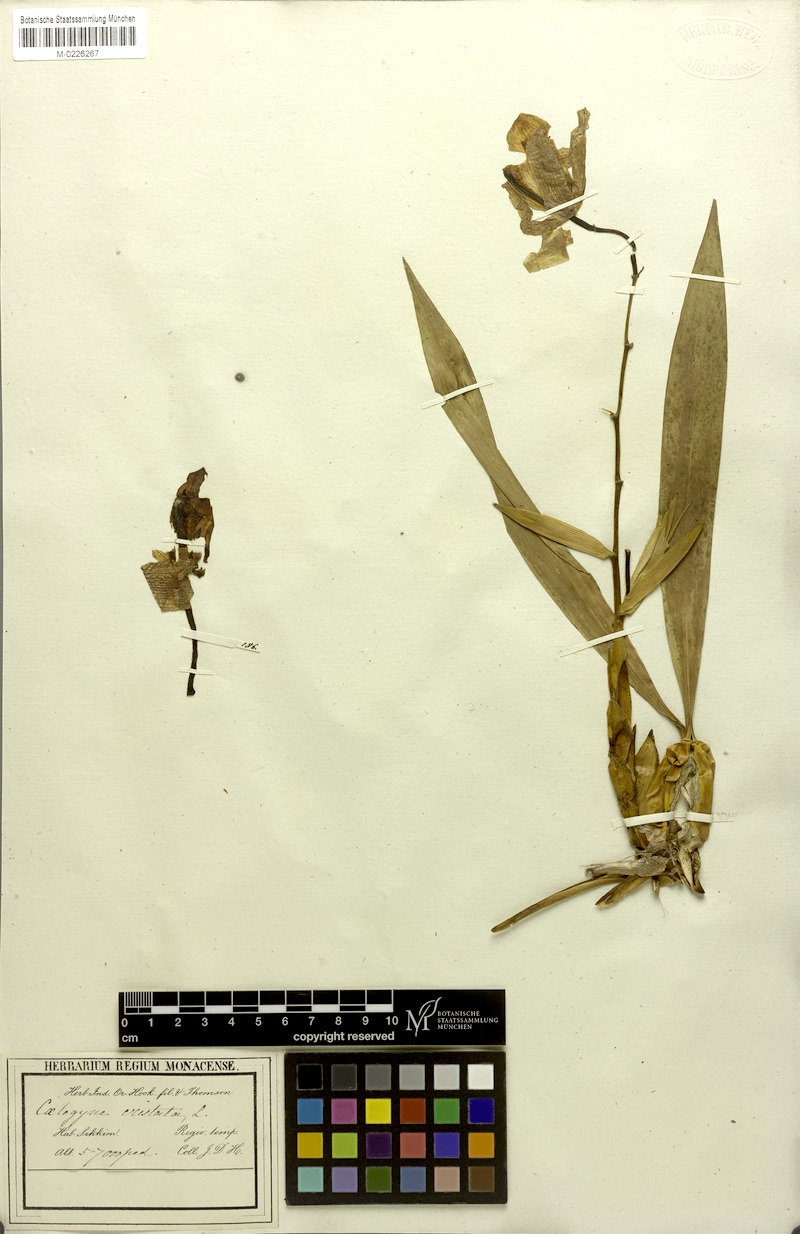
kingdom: Plantae
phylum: Tracheophyta
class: Liliopsida
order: Asparagales
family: Orchidaceae
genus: Coelogyne
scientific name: Coelogyne cristata
